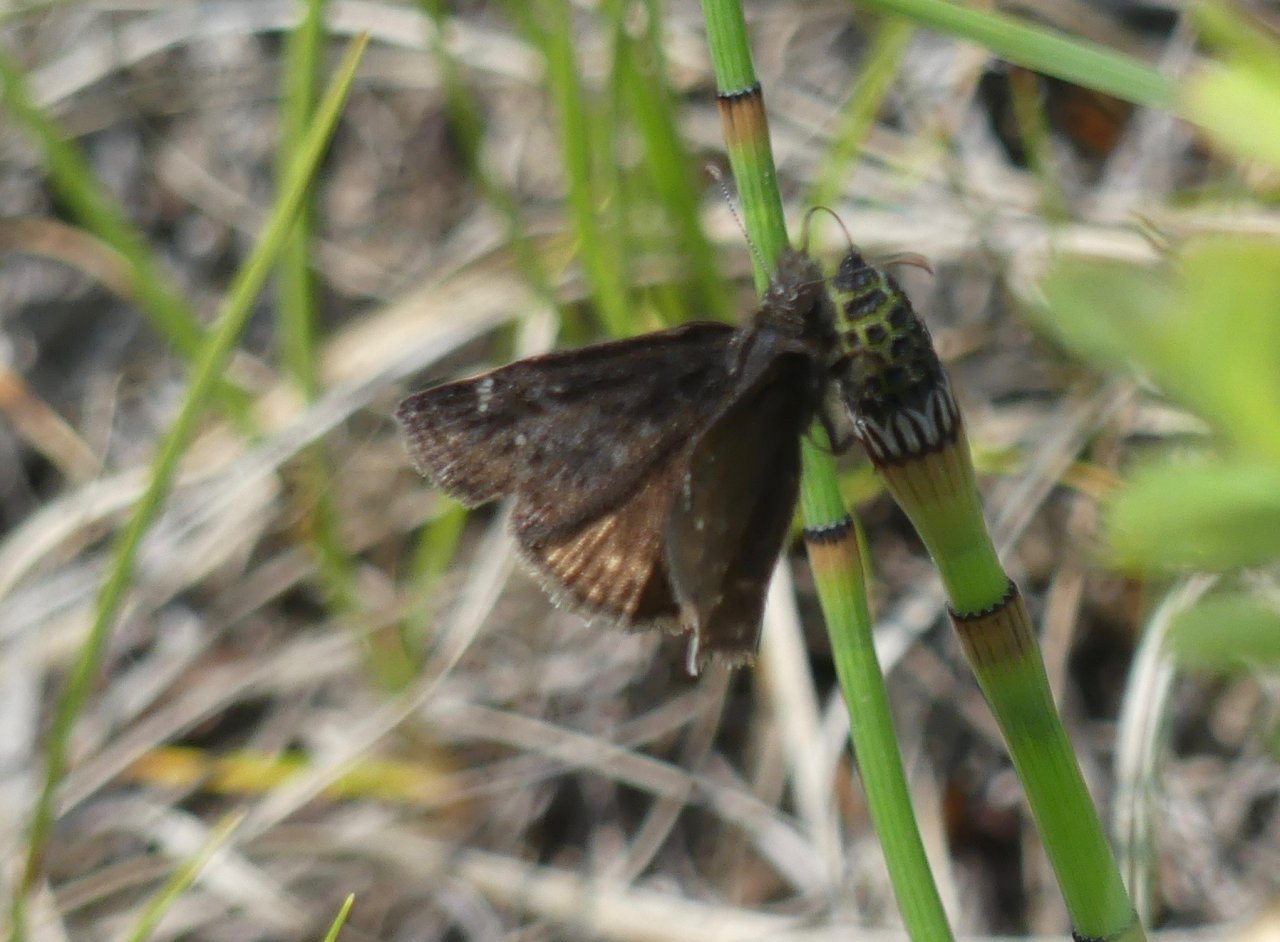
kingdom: Animalia
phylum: Arthropoda
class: Insecta
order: Lepidoptera
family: Hesperiidae
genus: Gesta
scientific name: Gesta
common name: Persius Duskywing
